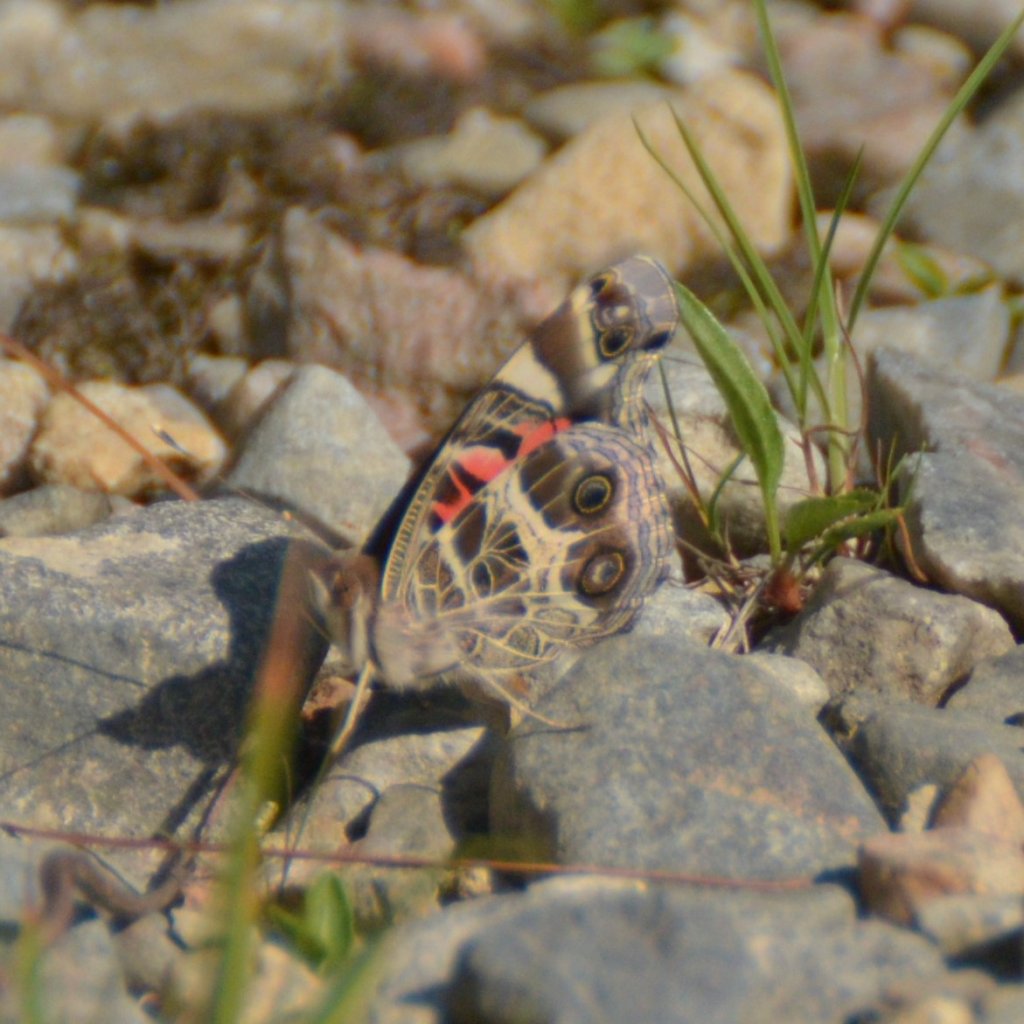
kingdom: Animalia
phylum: Arthropoda
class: Insecta
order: Lepidoptera
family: Nymphalidae
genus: Vanessa
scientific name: Vanessa virginiensis
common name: American Lady
